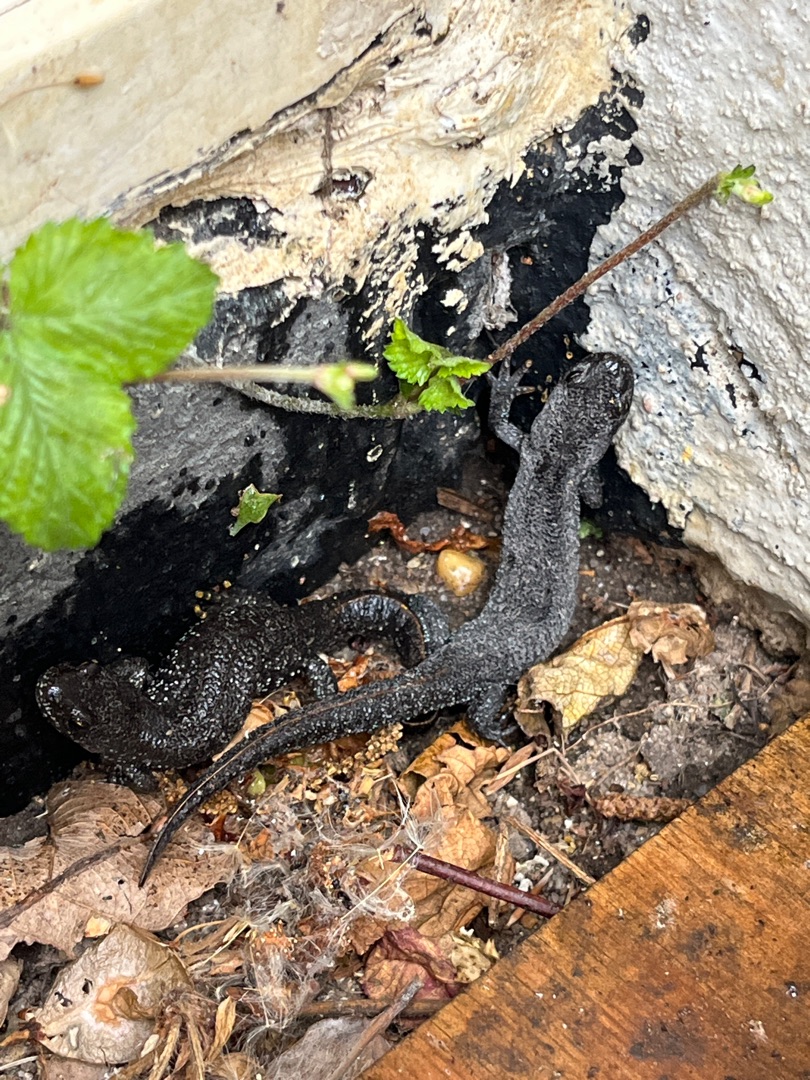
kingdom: Animalia
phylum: Chordata
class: Amphibia
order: Caudata
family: Salamandridae
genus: Triturus
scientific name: Triturus cristatus
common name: Stor vandsalamander
